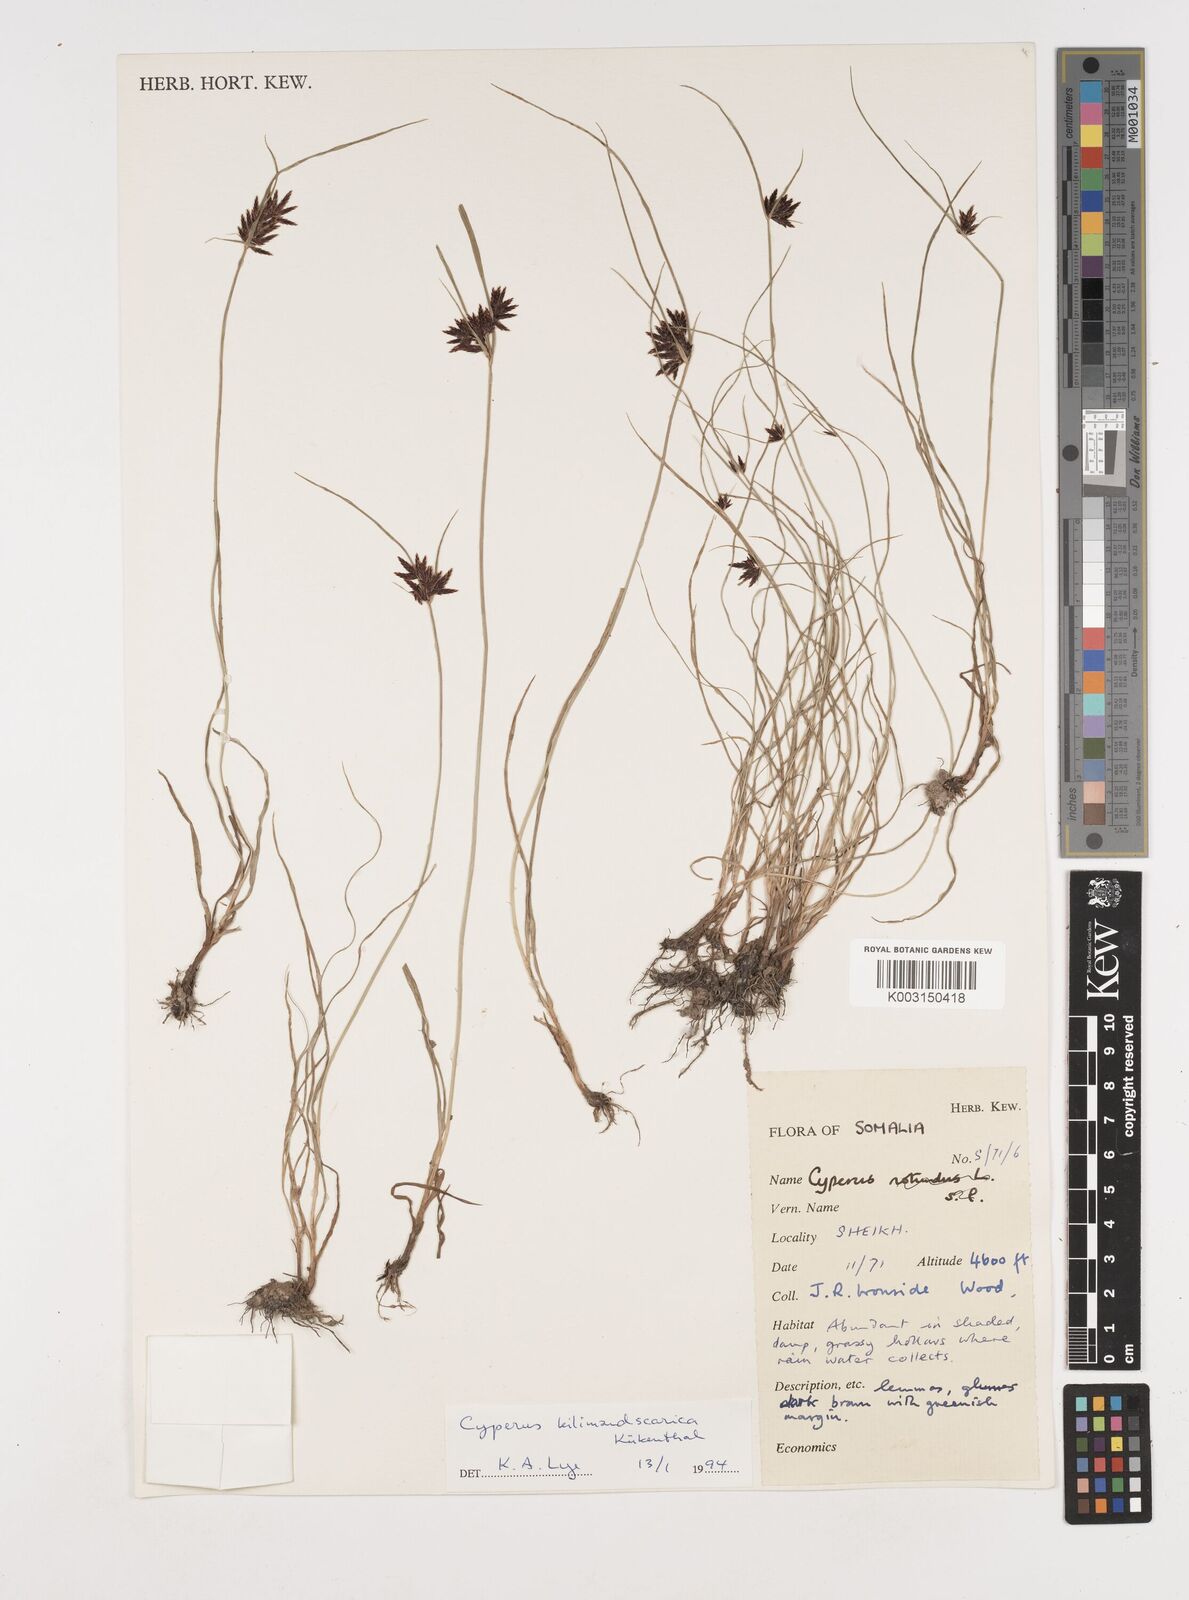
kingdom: Plantae
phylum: Tracheophyta
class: Liliopsida
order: Poales
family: Cyperaceae
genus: Cyperus
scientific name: Cyperus kilimandscharicus
